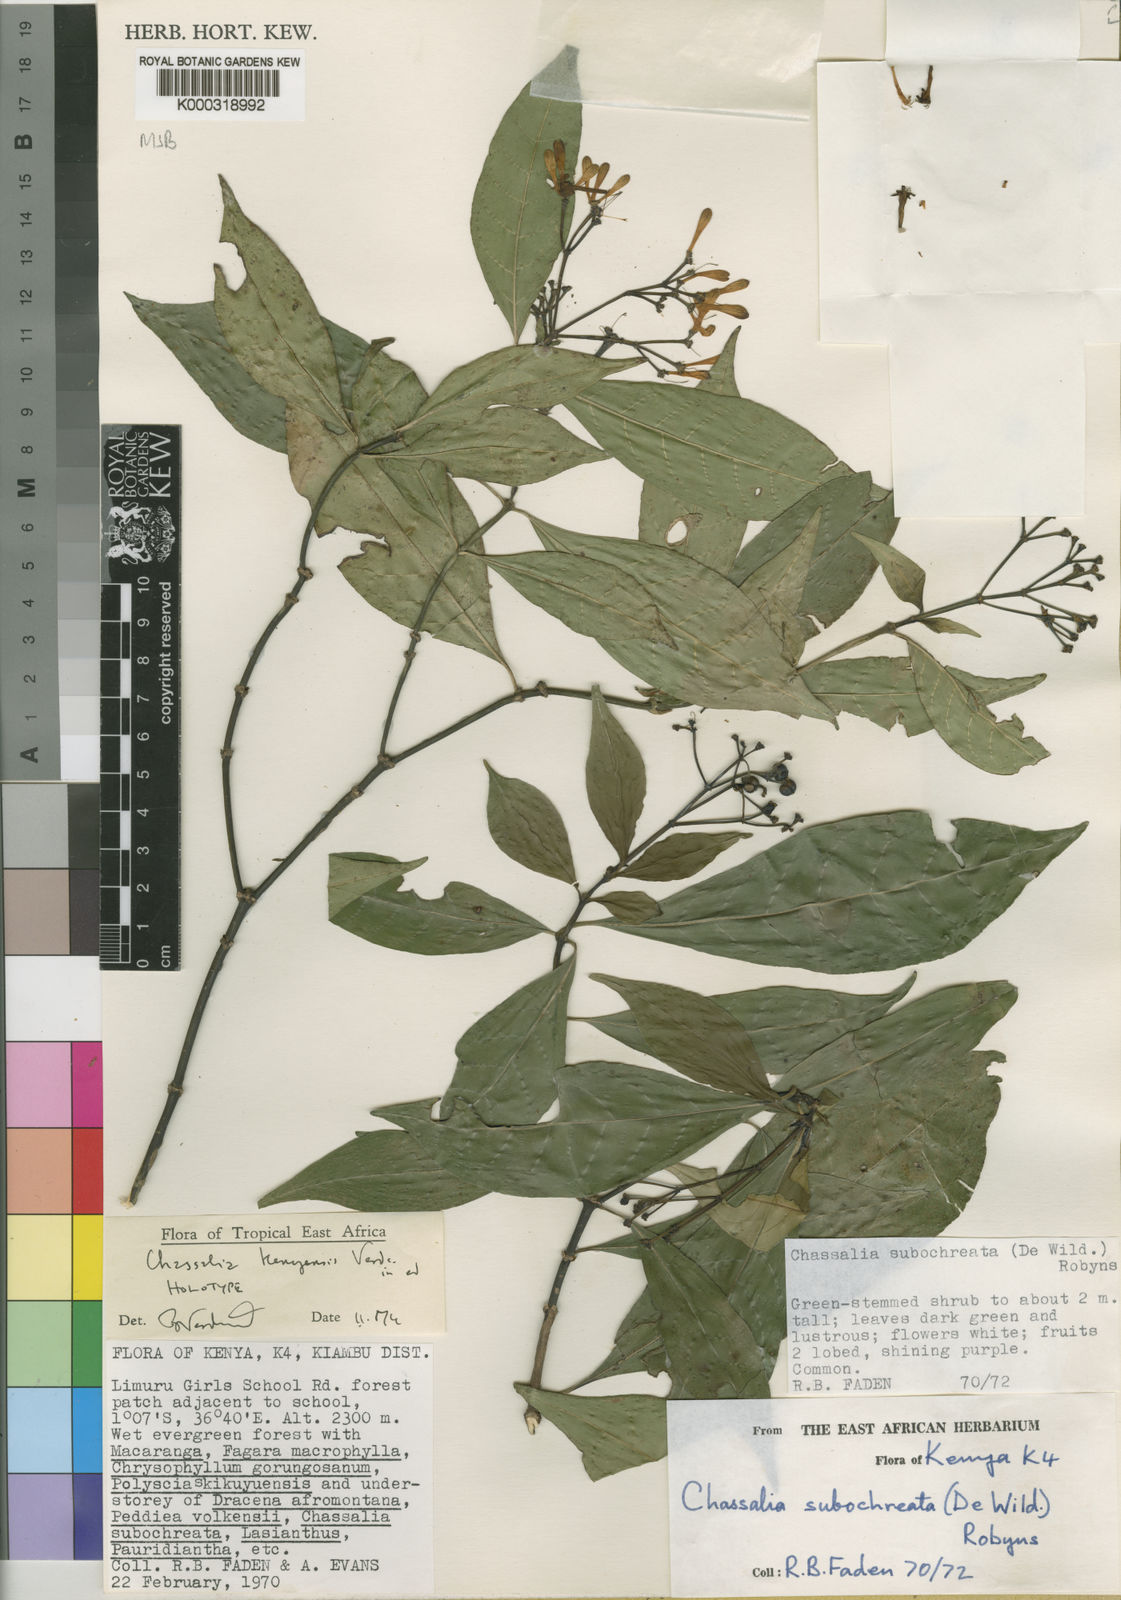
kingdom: Plantae
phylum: Tracheophyta
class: Magnoliopsida
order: Gentianales
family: Rubiaceae
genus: Chassalia
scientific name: Chassalia kenyensis
